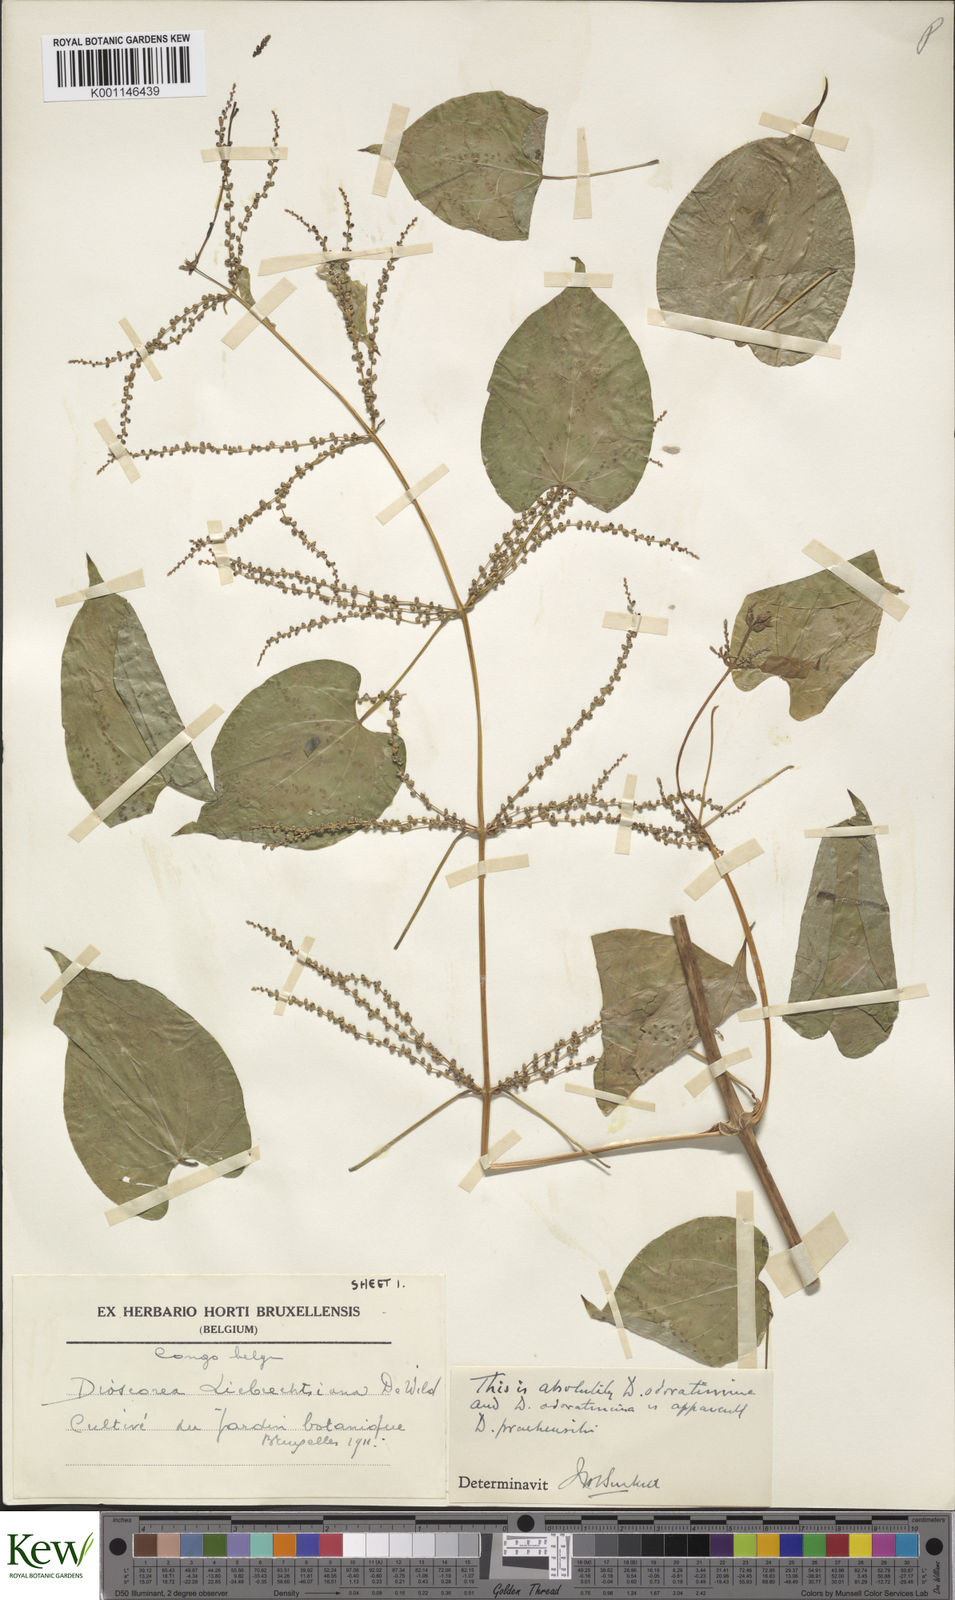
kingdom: Plantae
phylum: Tracheophyta
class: Liliopsida
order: Dioscoreales
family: Dioscoreaceae
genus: Dioscorea
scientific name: Dioscorea praehensilis
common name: Bush yam
